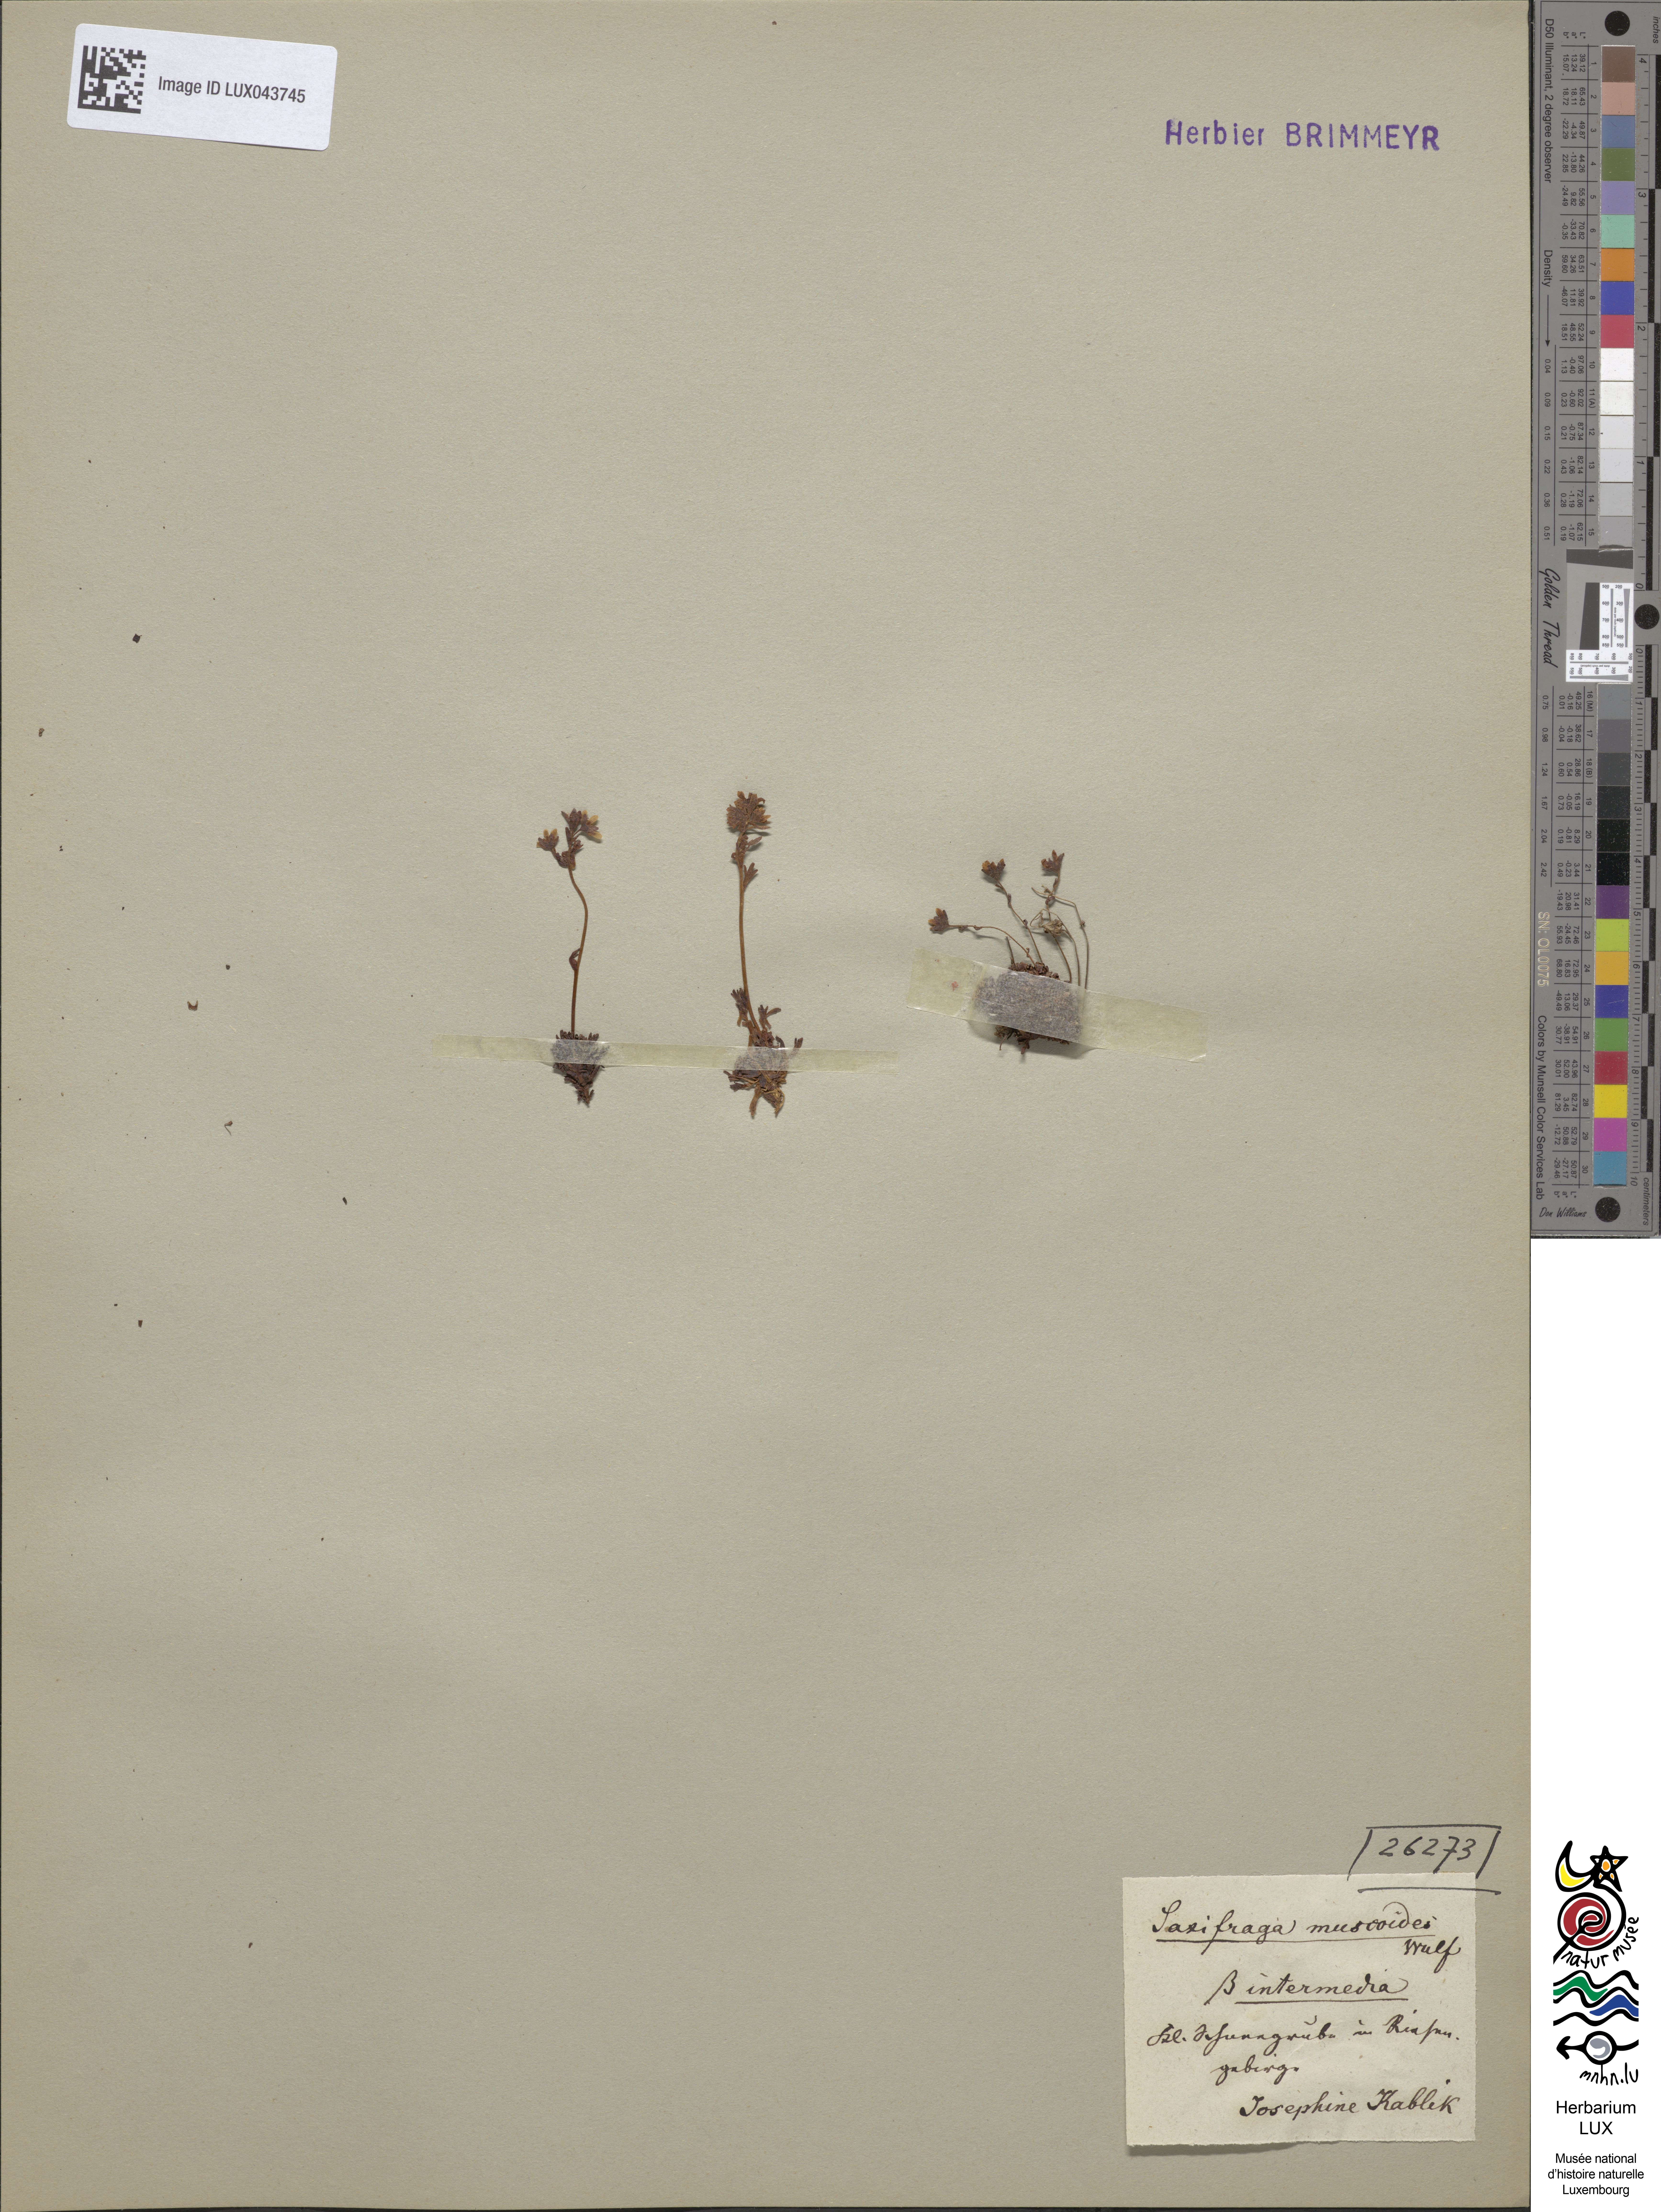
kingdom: Plantae
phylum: Tracheophyta
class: Magnoliopsida
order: Saxifragales
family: Saxifragaceae
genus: Saxifraga
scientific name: Saxifraga exarata
